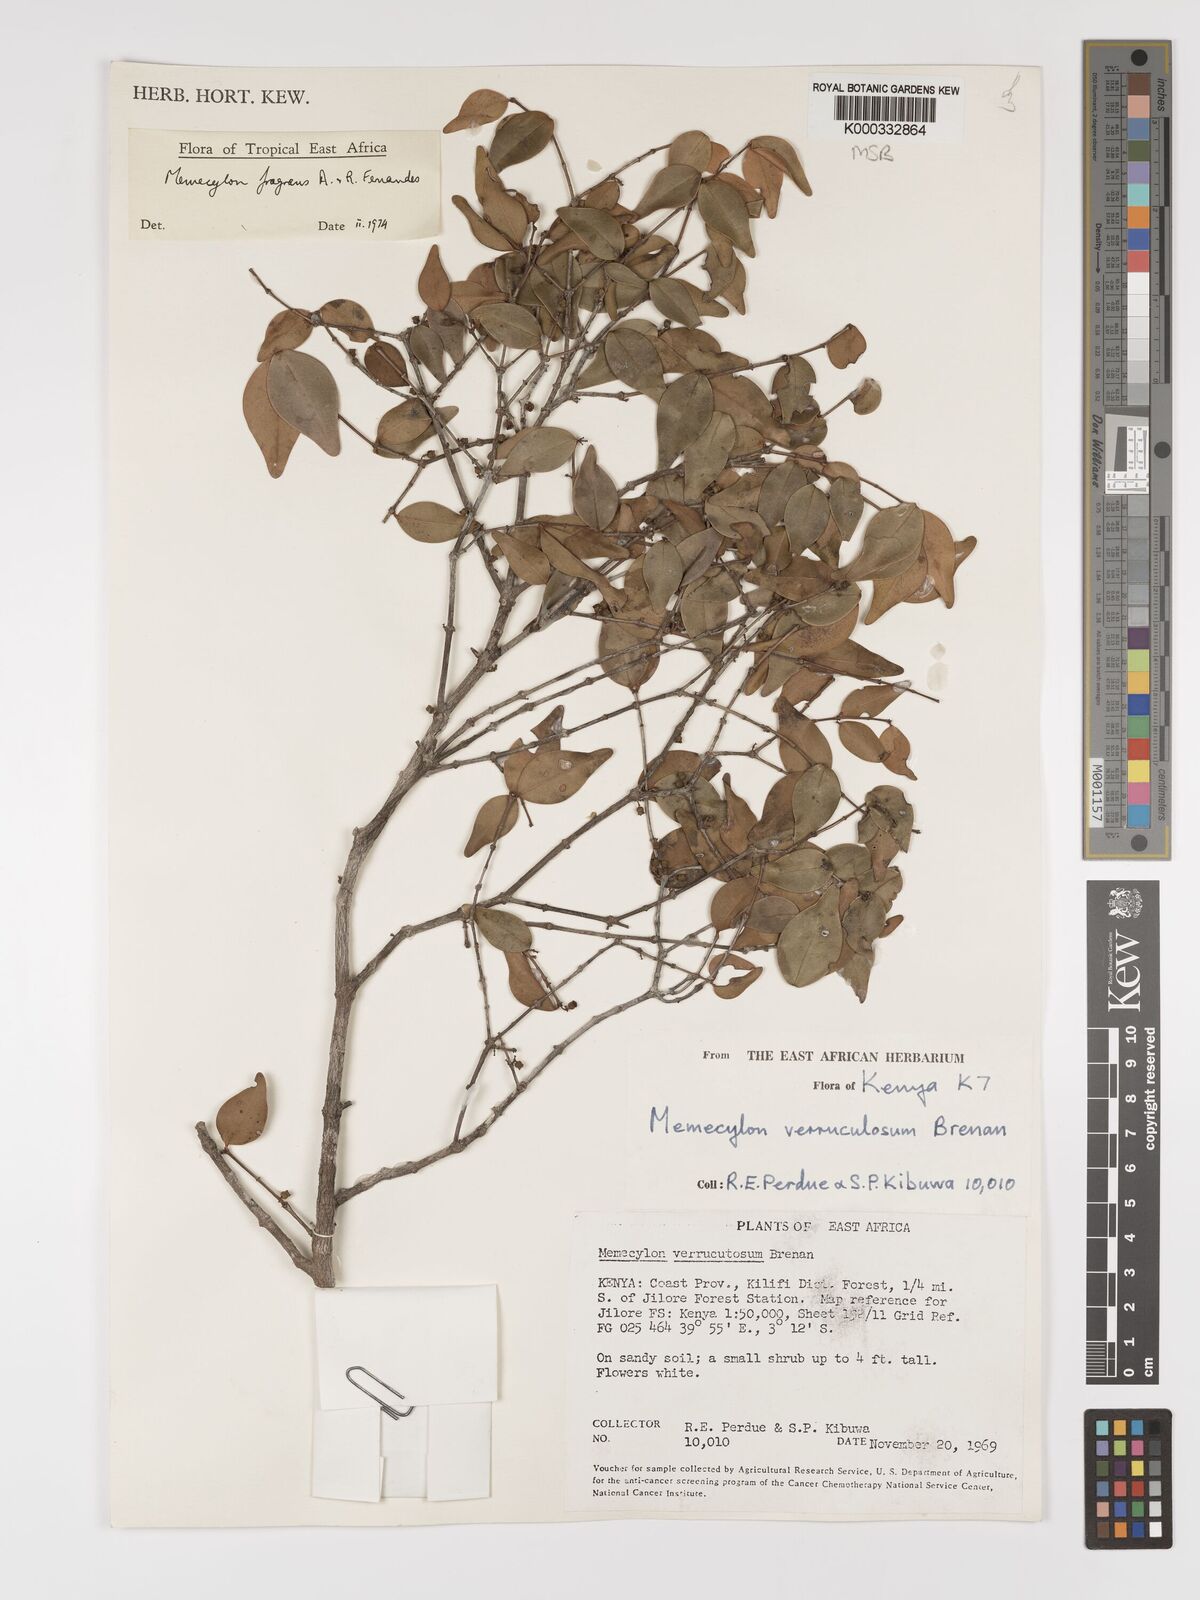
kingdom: Plantae
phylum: Tracheophyta
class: Magnoliopsida
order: Myrtales
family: Melastomataceae
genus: Memecylon
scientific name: Memecylon fragrans
